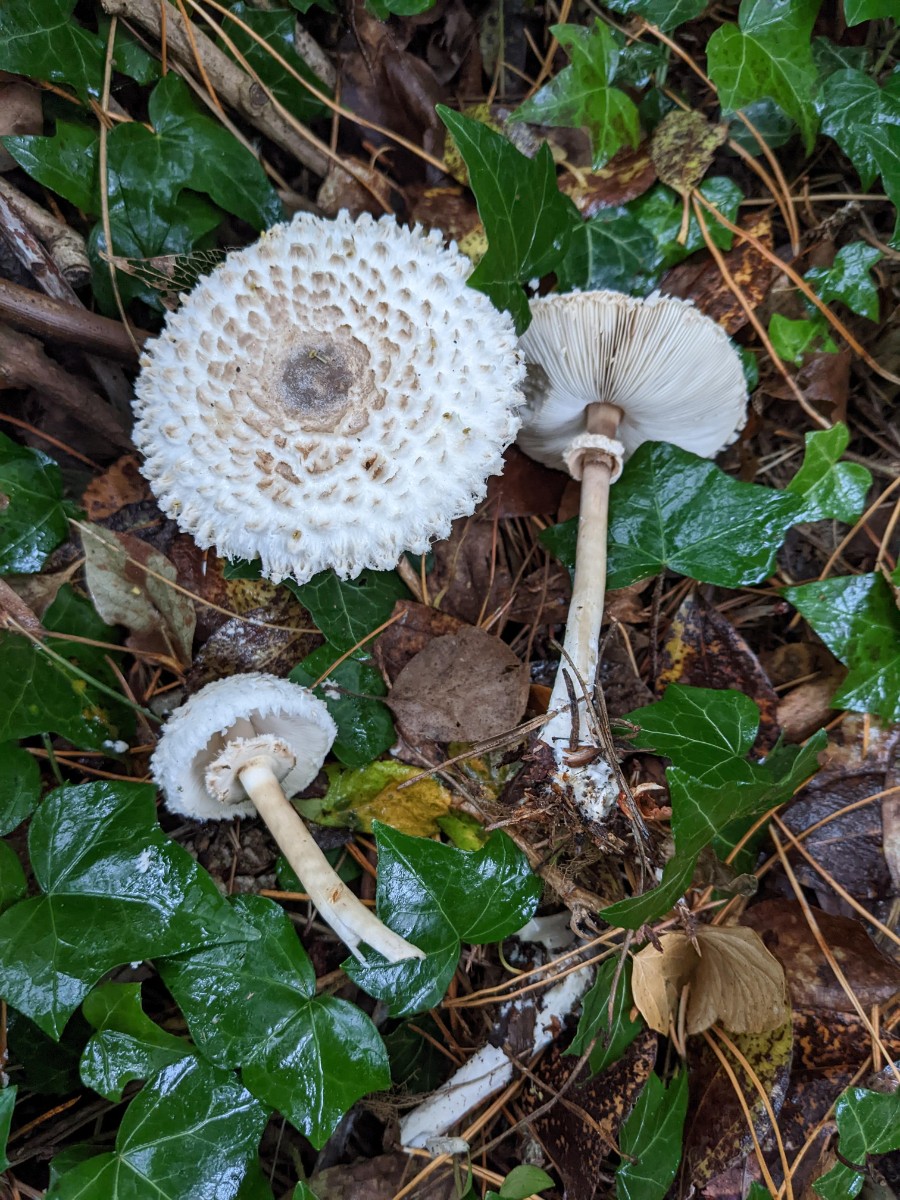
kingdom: Fungi
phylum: Basidiomycota
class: Agaricomycetes
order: Agaricales
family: Agaricaceae
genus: Leucoagaricus
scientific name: Leucoagaricus nympharum
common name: gran-silkehat
